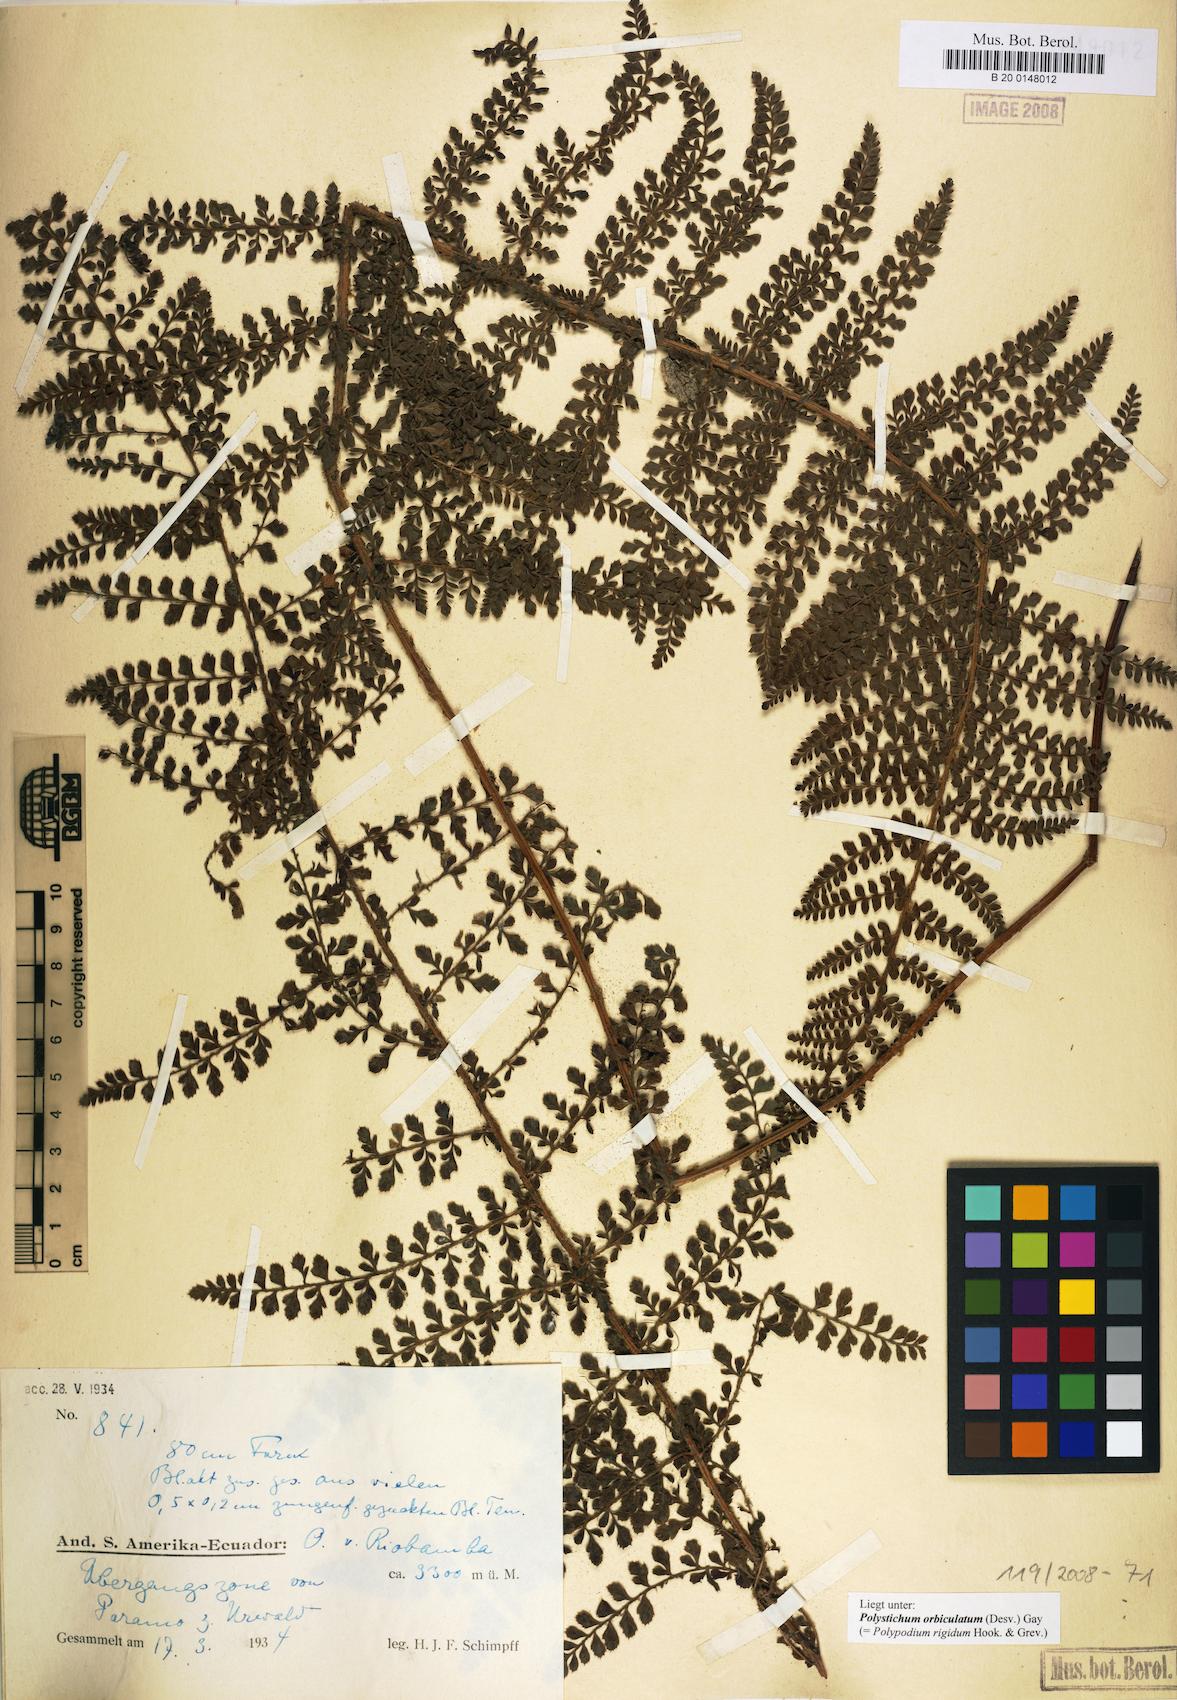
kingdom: Plantae
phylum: Tracheophyta
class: Polypodiopsida
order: Polypodiales
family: Dryopteridaceae
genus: Polystichum
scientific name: Polystichum orbiculatum
